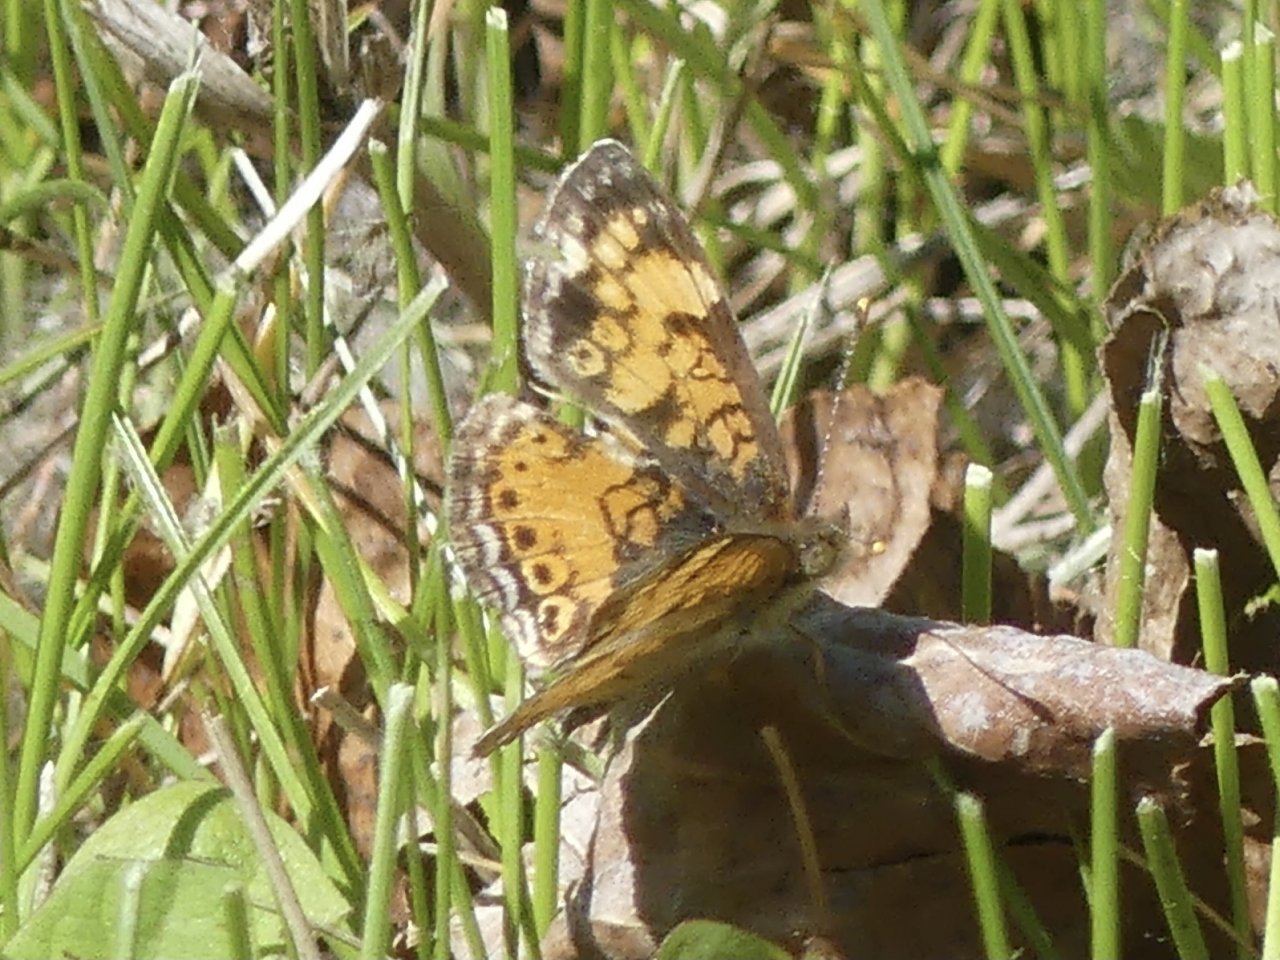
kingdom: Animalia
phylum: Arthropoda
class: Insecta
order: Lepidoptera
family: Nymphalidae
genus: Phyciodes
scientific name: Phyciodes tharos
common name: Northern Crescent
